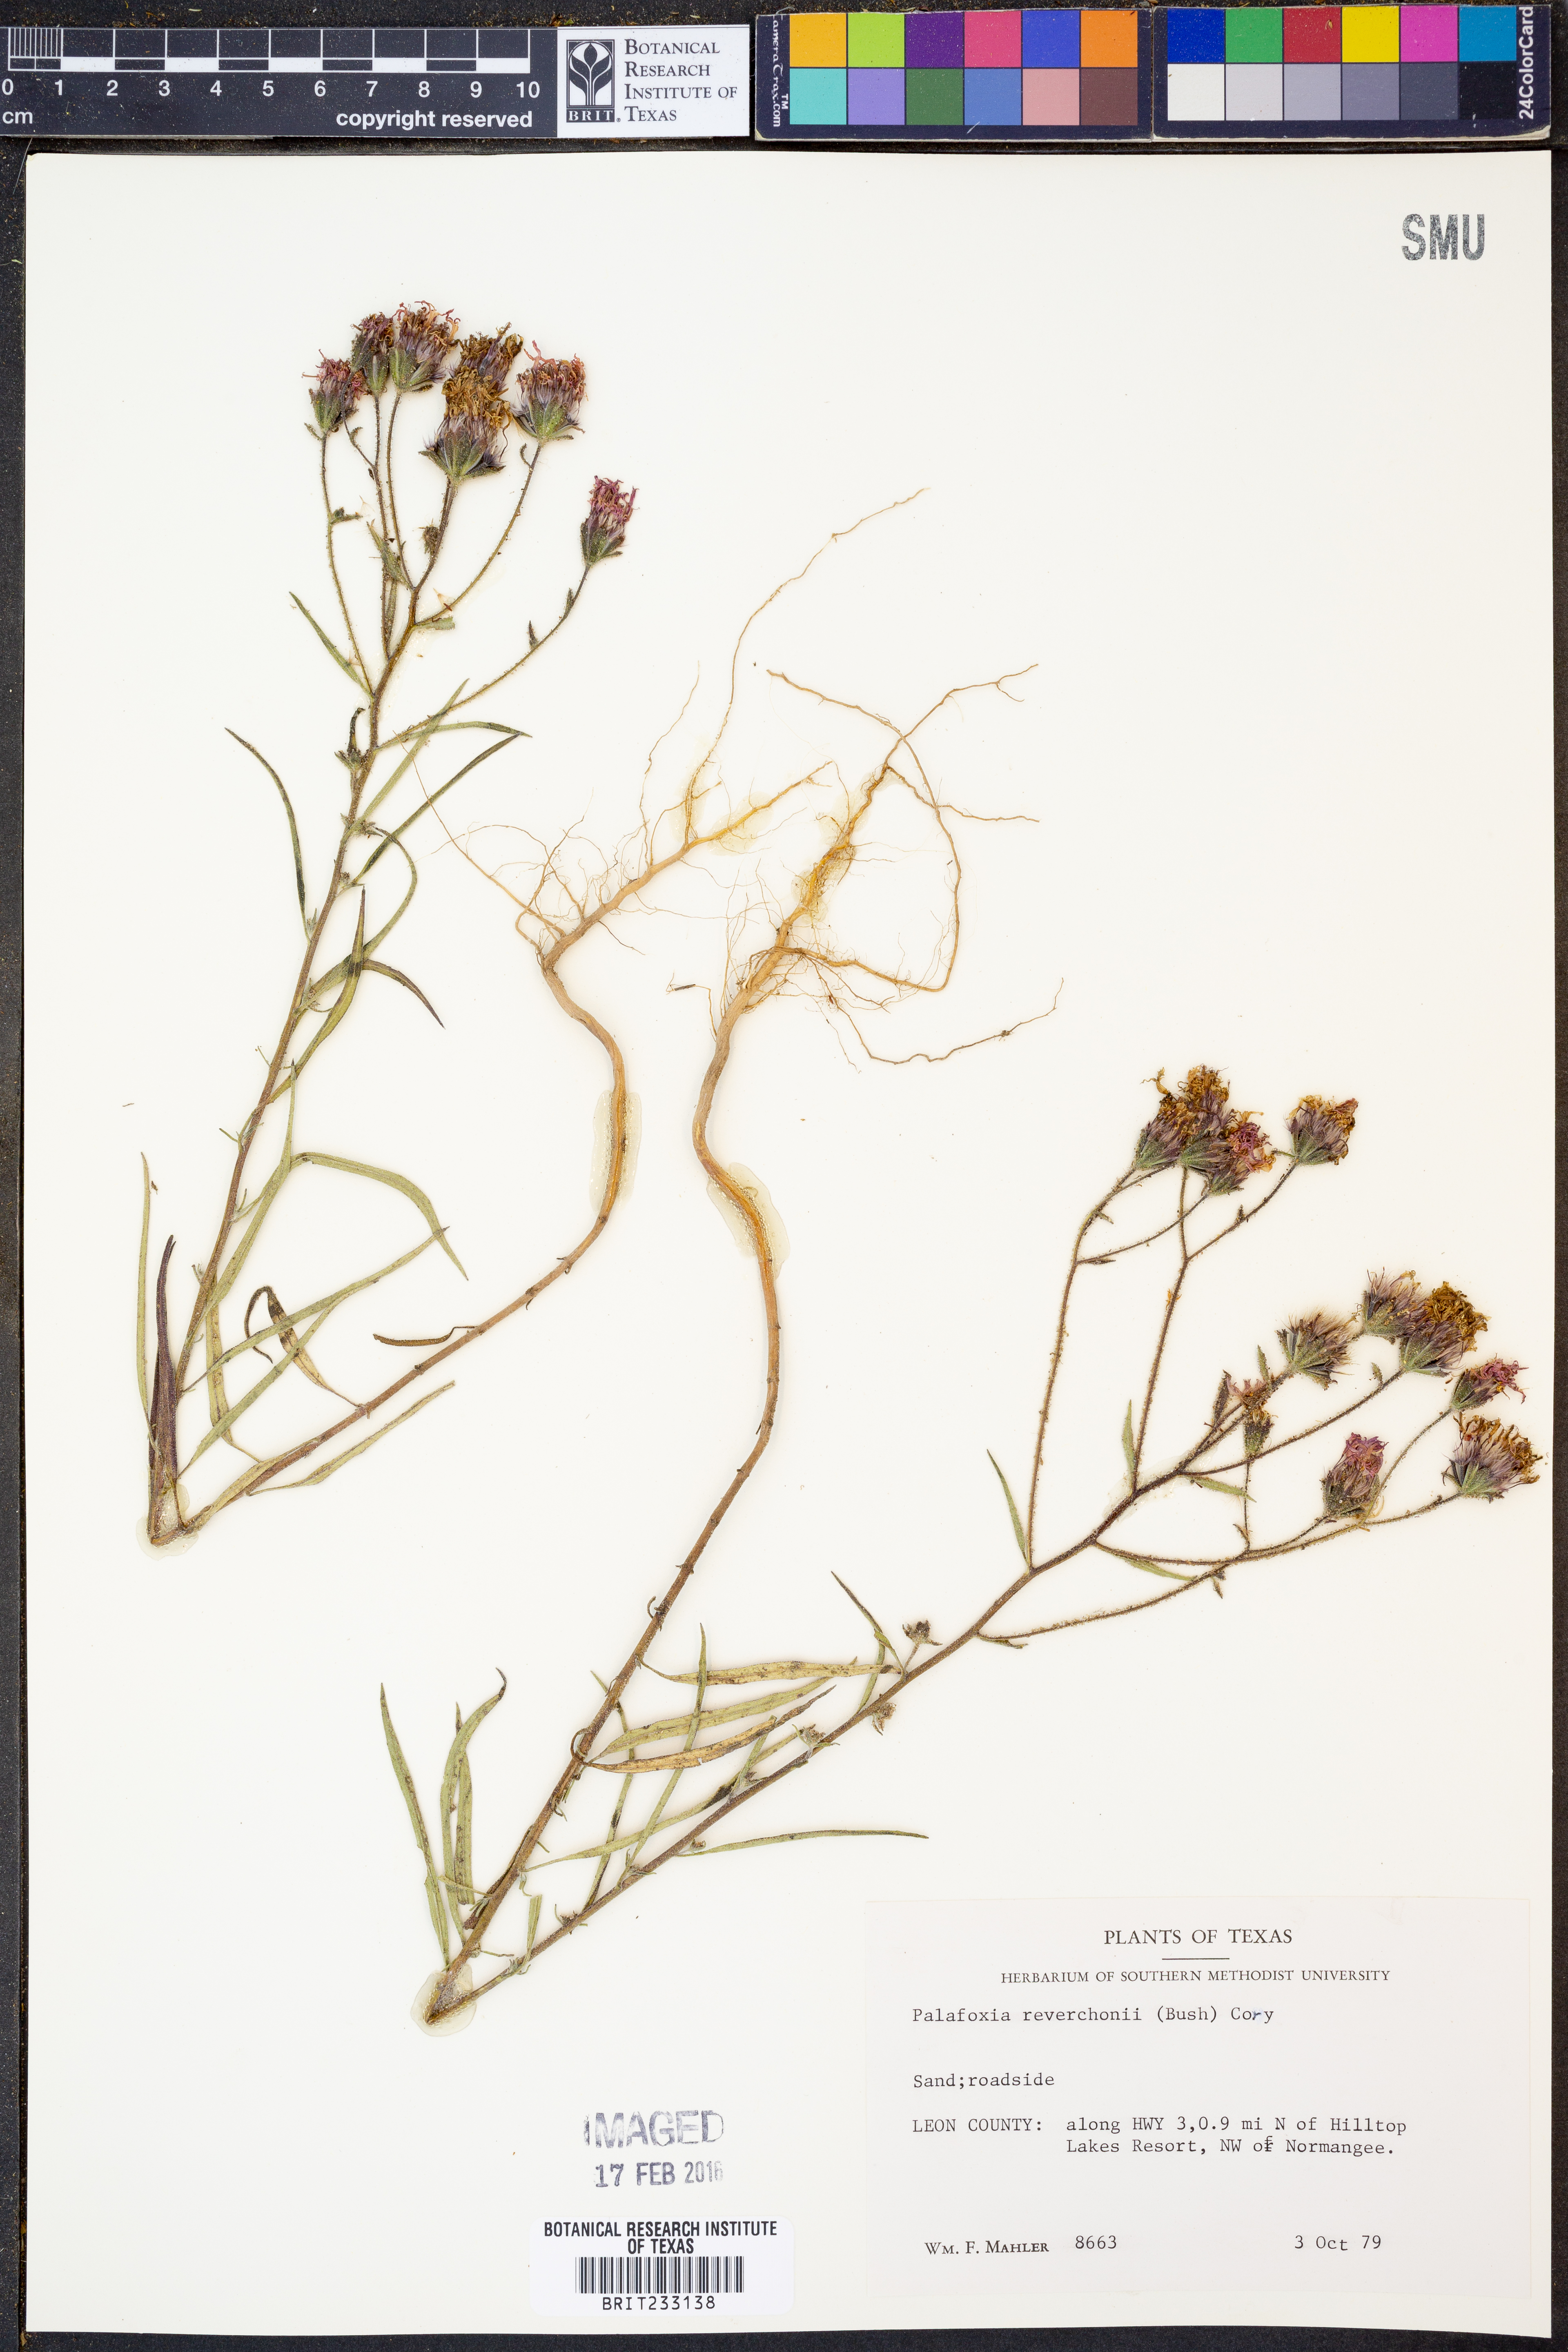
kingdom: Plantae
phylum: Tracheophyta
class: Magnoliopsida
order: Asterales
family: Asteraceae
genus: Palafoxia
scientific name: Palafoxia reverchonii
